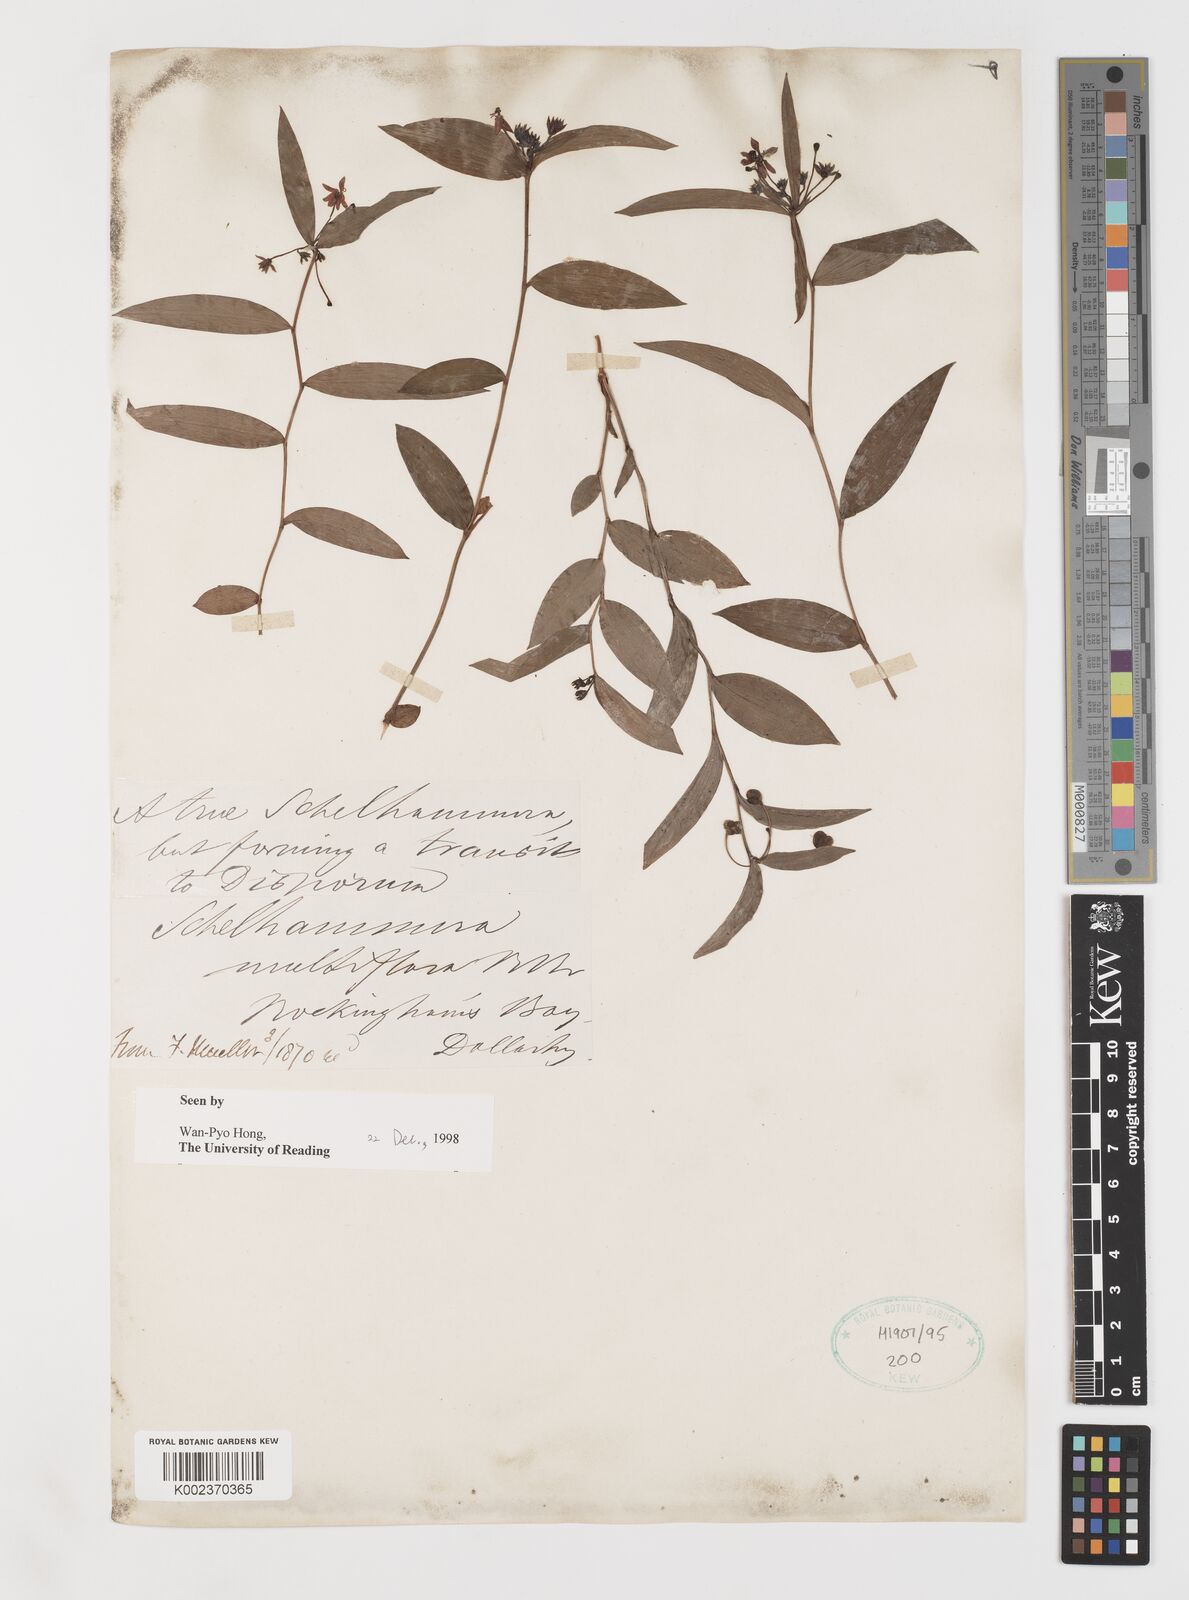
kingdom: Plantae
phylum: Tracheophyta
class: Liliopsida
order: Liliales
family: Colchicaceae
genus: Schelhammera
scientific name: Schelhammera multiflora
